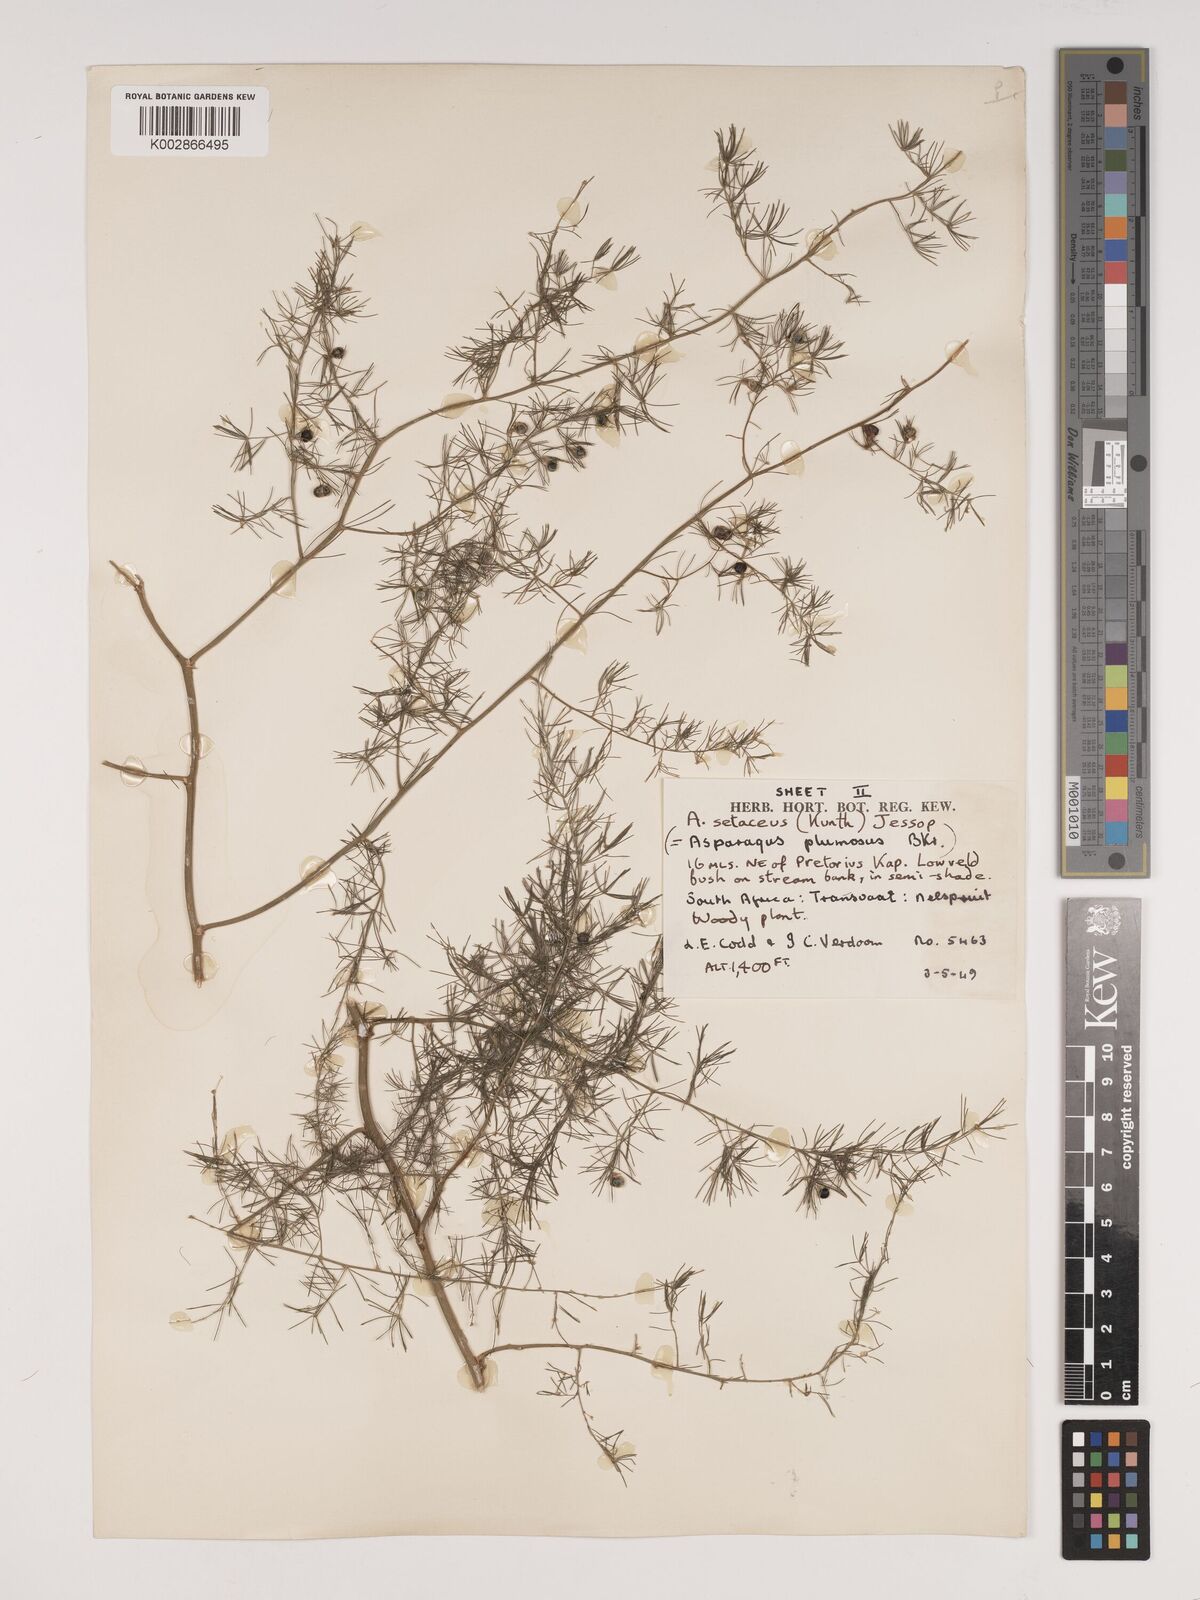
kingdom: Plantae
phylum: Tracheophyta
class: Liliopsida
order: Asparagales
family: Asparagaceae
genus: Asparagus
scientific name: Asparagus setaceus
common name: Common asparagus fern
